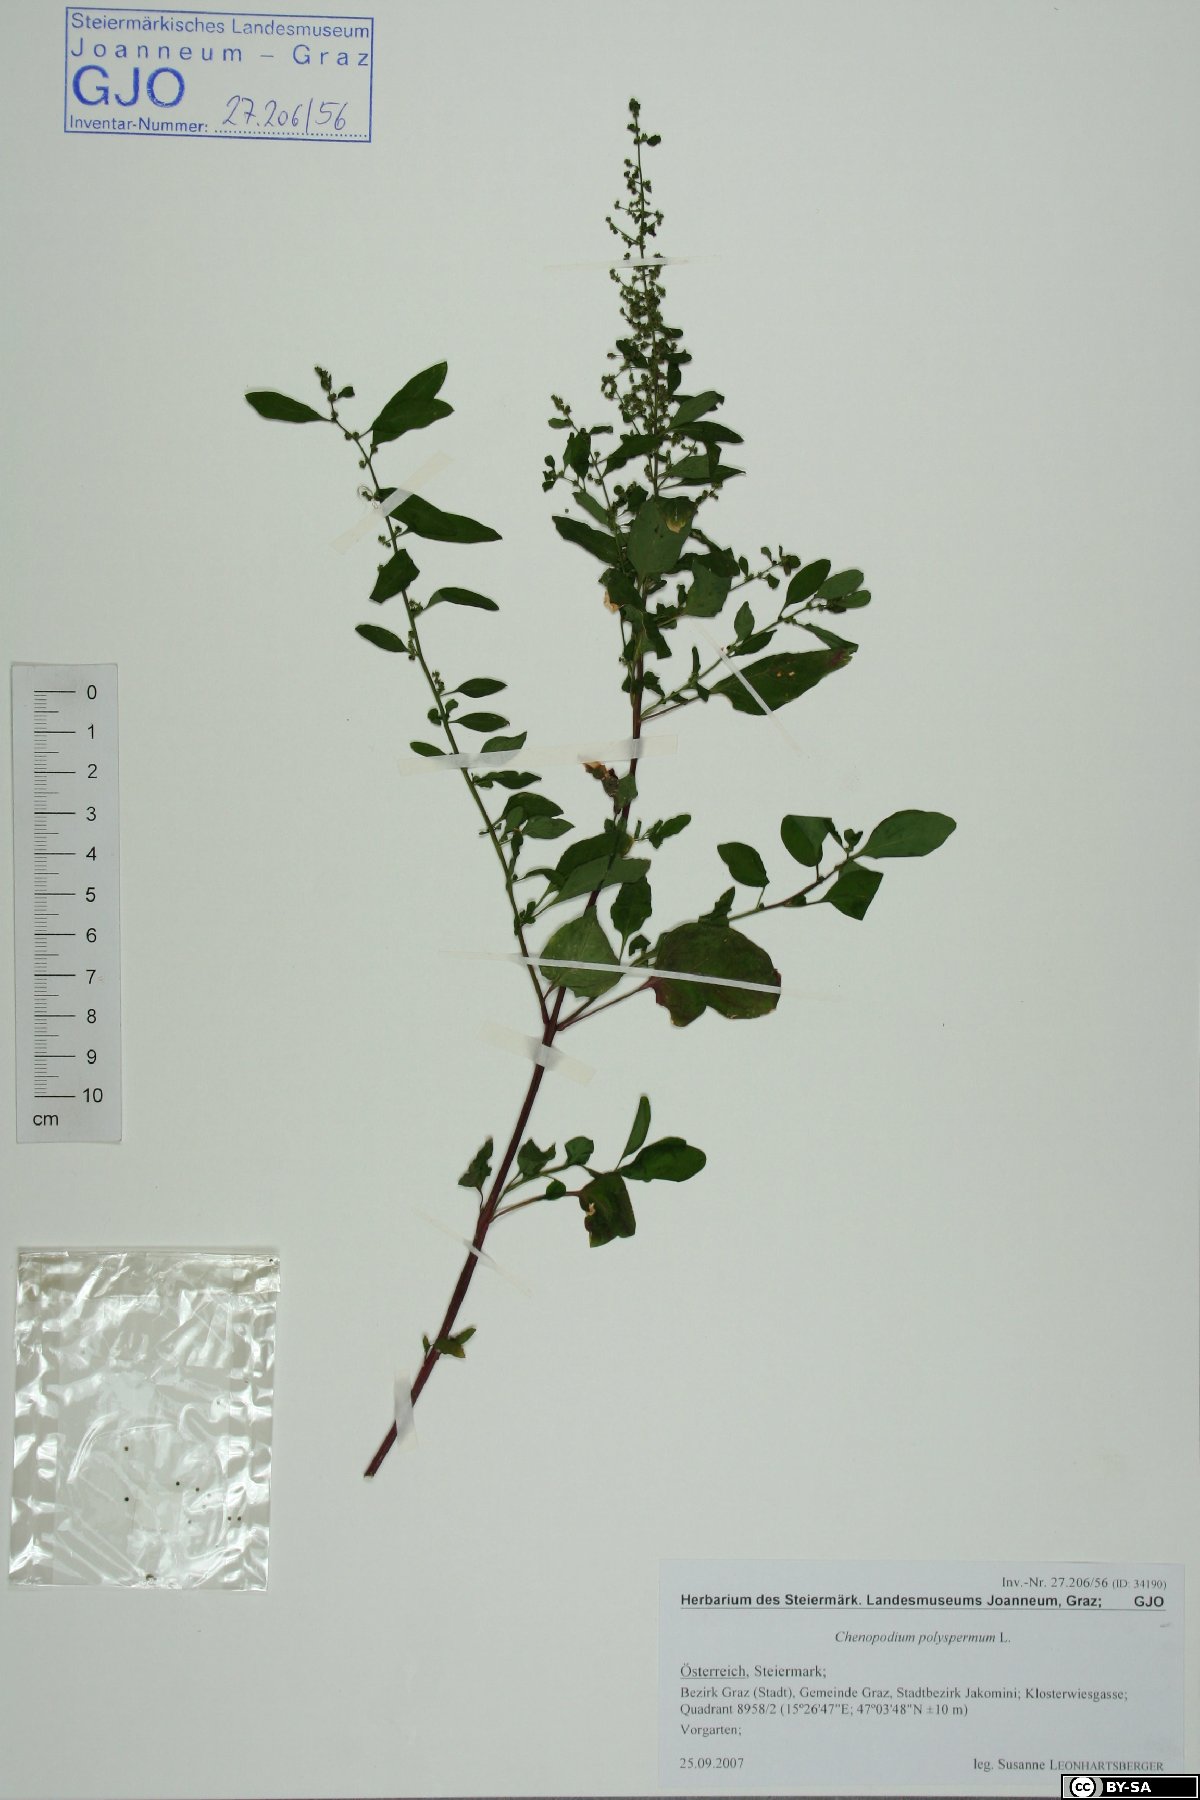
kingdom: Plantae
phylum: Tracheophyta
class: Magnoliopsida
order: Caryophyllales
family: Amaranthaceae
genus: Lipandra
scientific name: Lipandra polysperma
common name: Many-seed goosefoot
